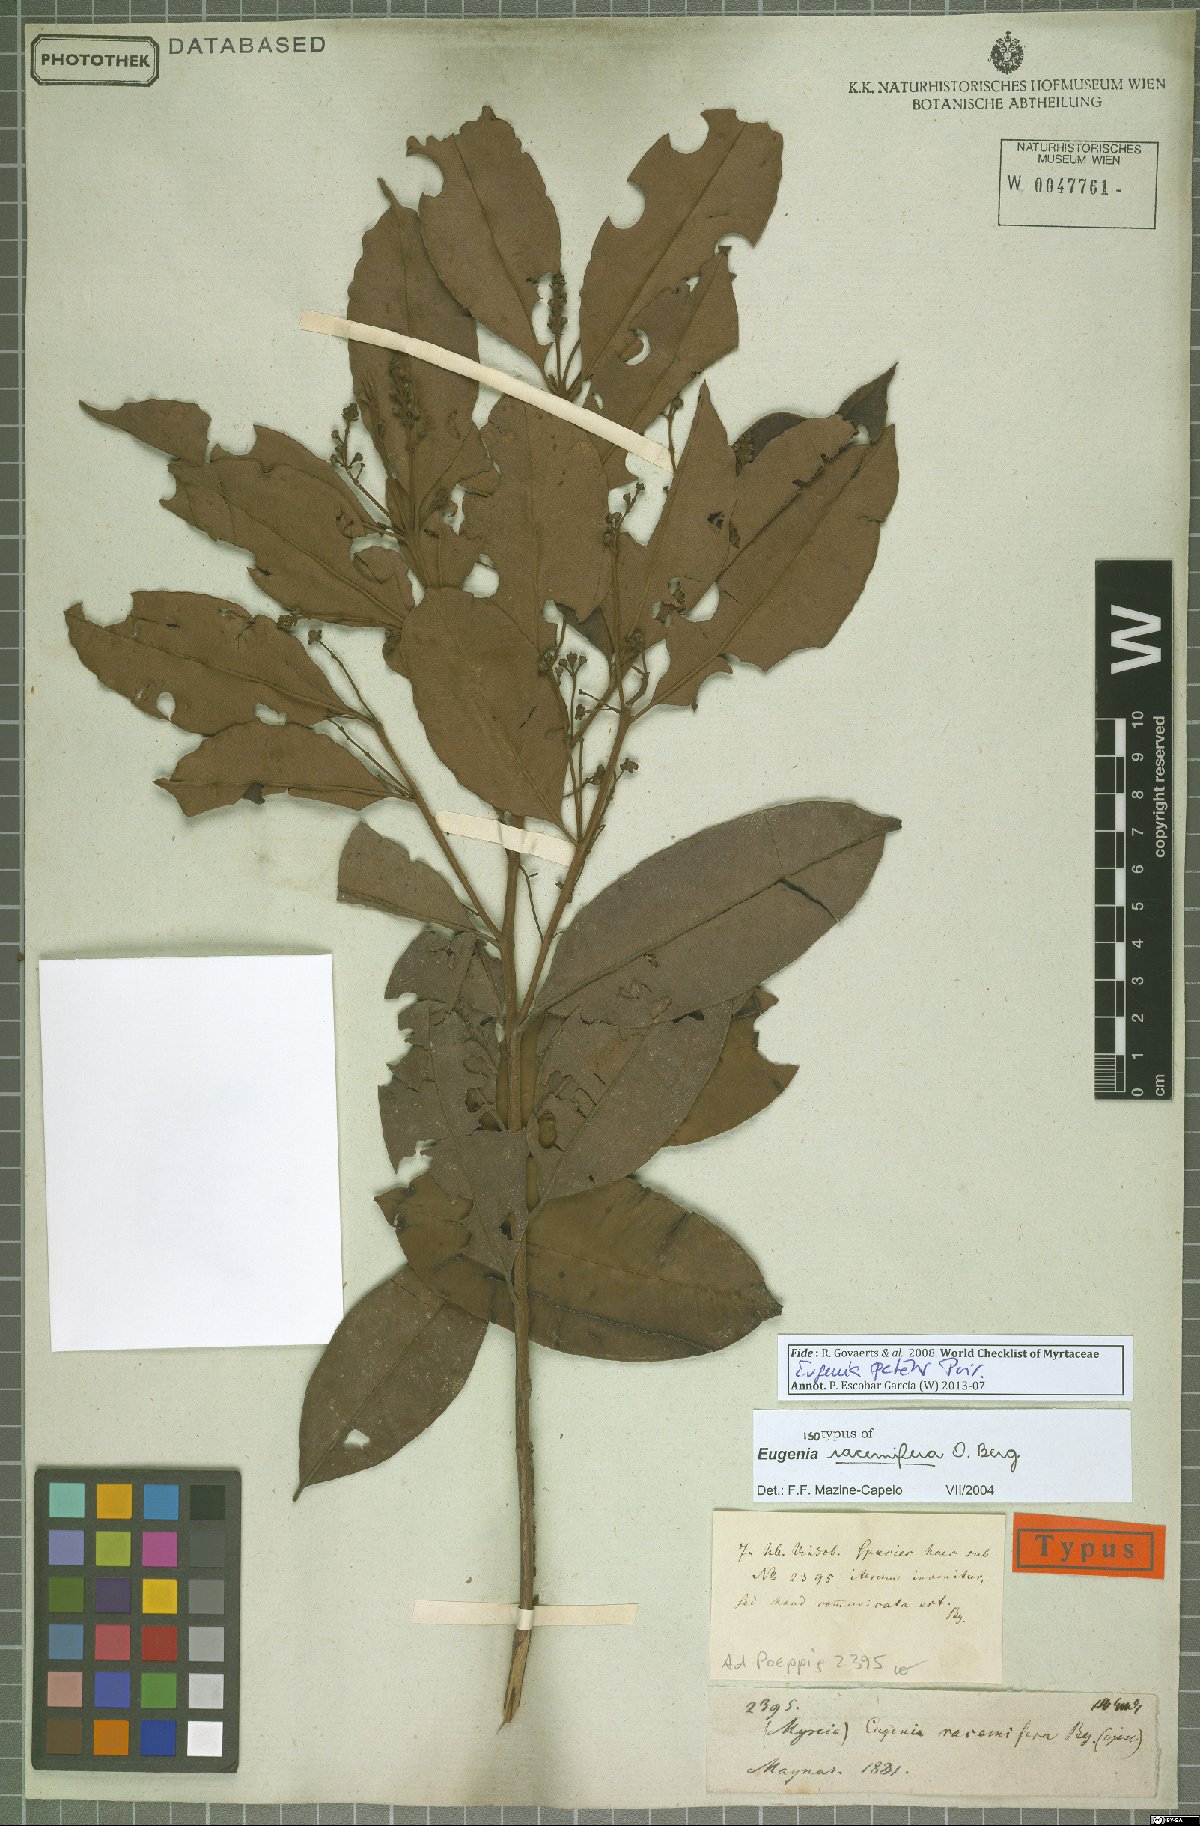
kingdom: Plantae
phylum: Tracheophyta
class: Magnoliopsida
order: Myrtales
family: Myrtaceae
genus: Eugenia
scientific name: Eugenia patens
